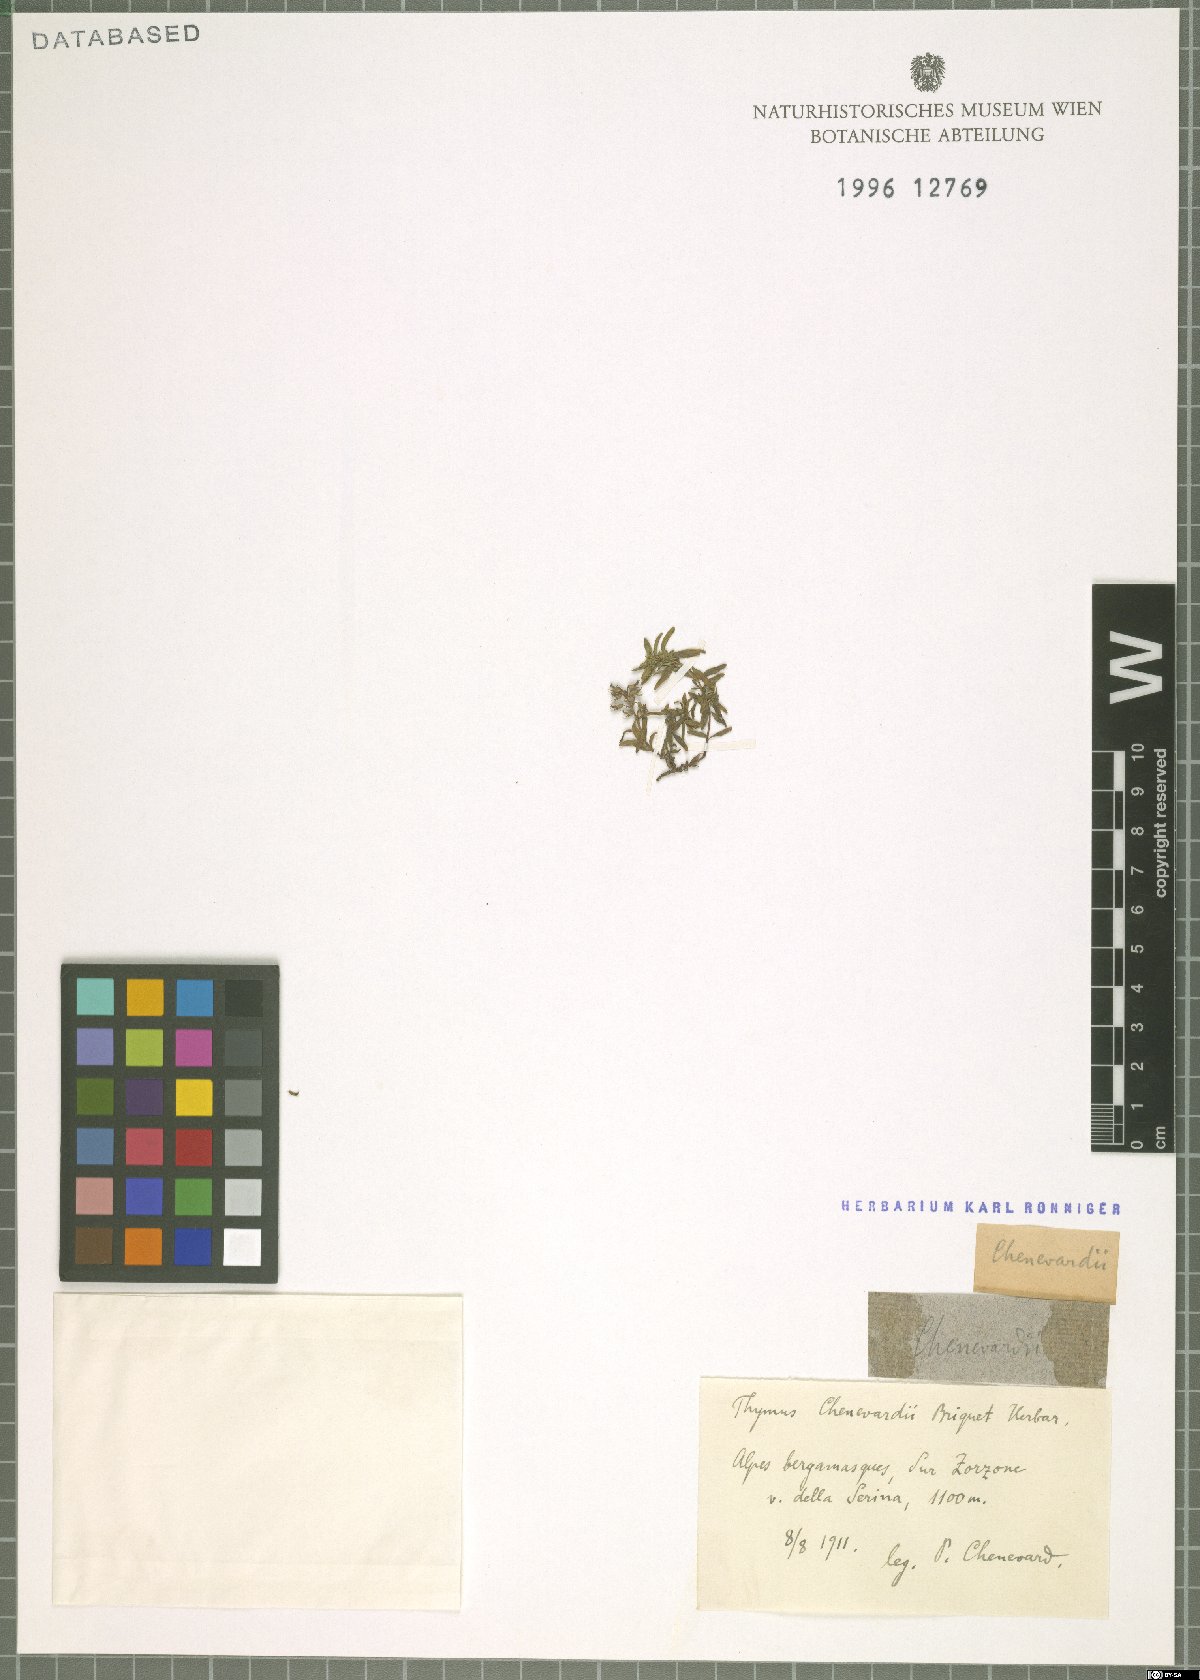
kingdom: Plantae
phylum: Tracheophyta
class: Magnoliopsida
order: Lamiales
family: Lamiaceae
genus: Thymus
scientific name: Thymus
